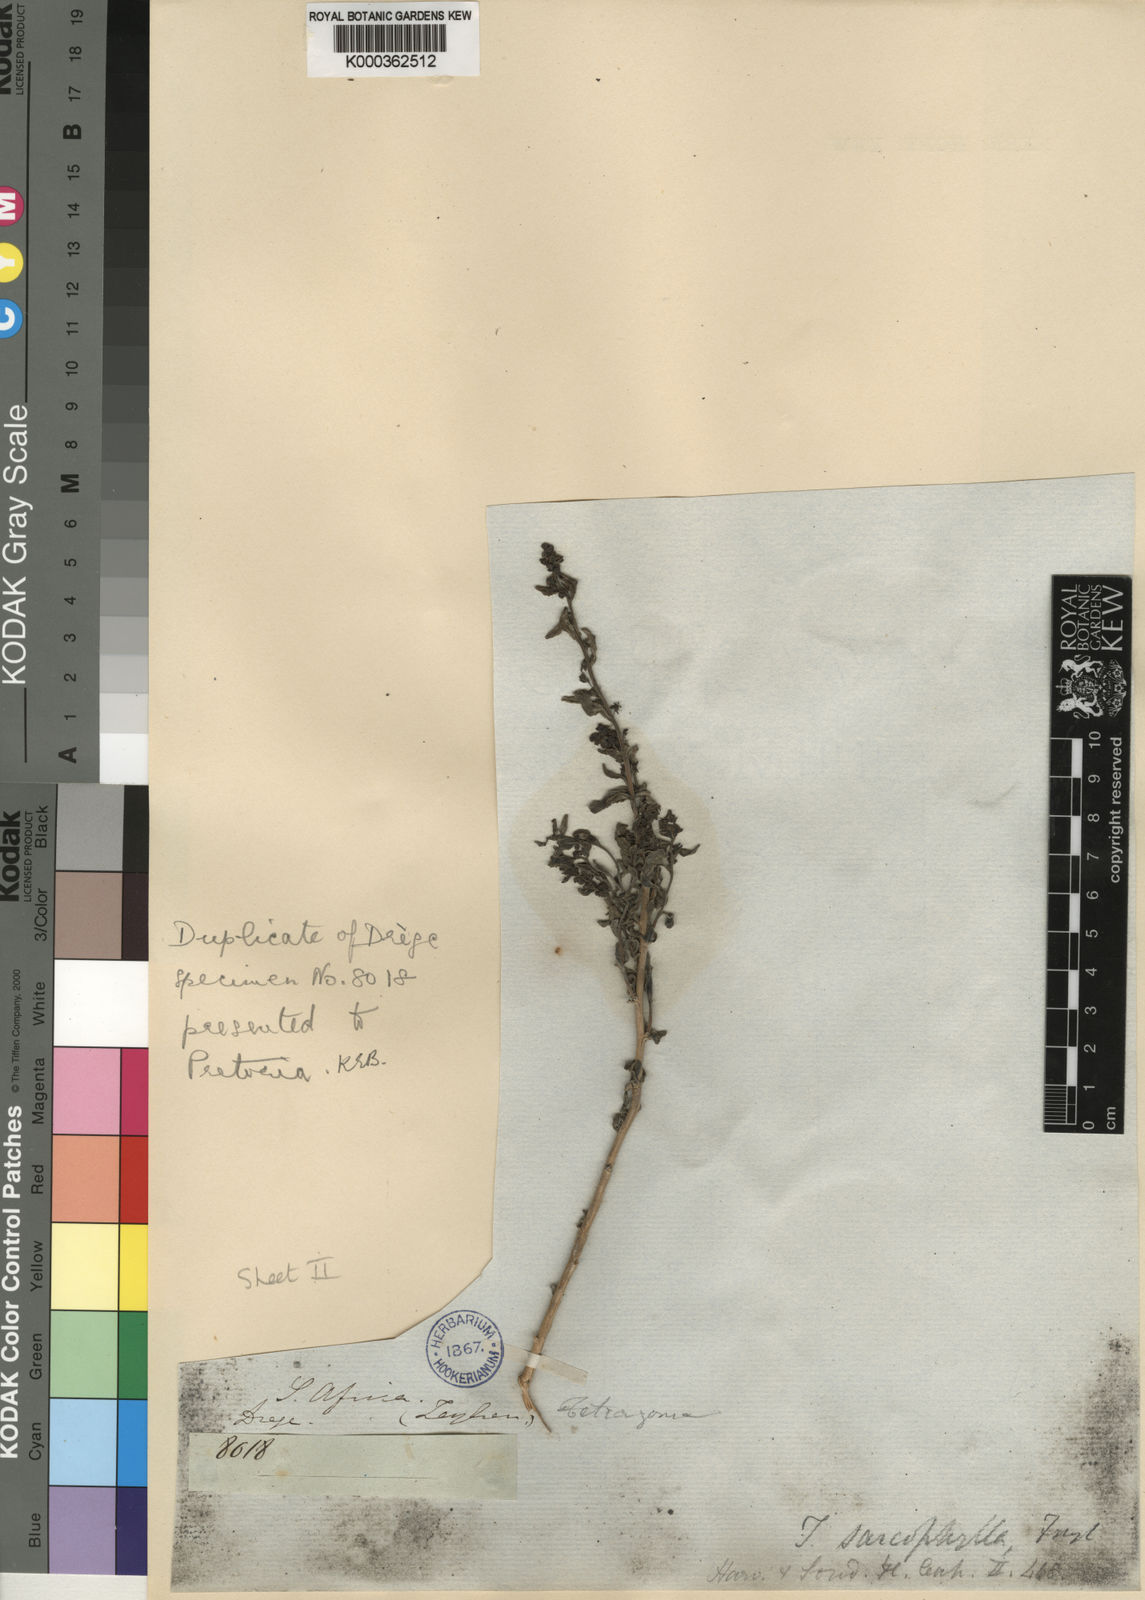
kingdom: Plantae
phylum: Tracheophyta
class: Magnoliopsida
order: Caryophyllales
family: Aizoaceae
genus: Tetragonia
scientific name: Tetragonia sarcophylla
